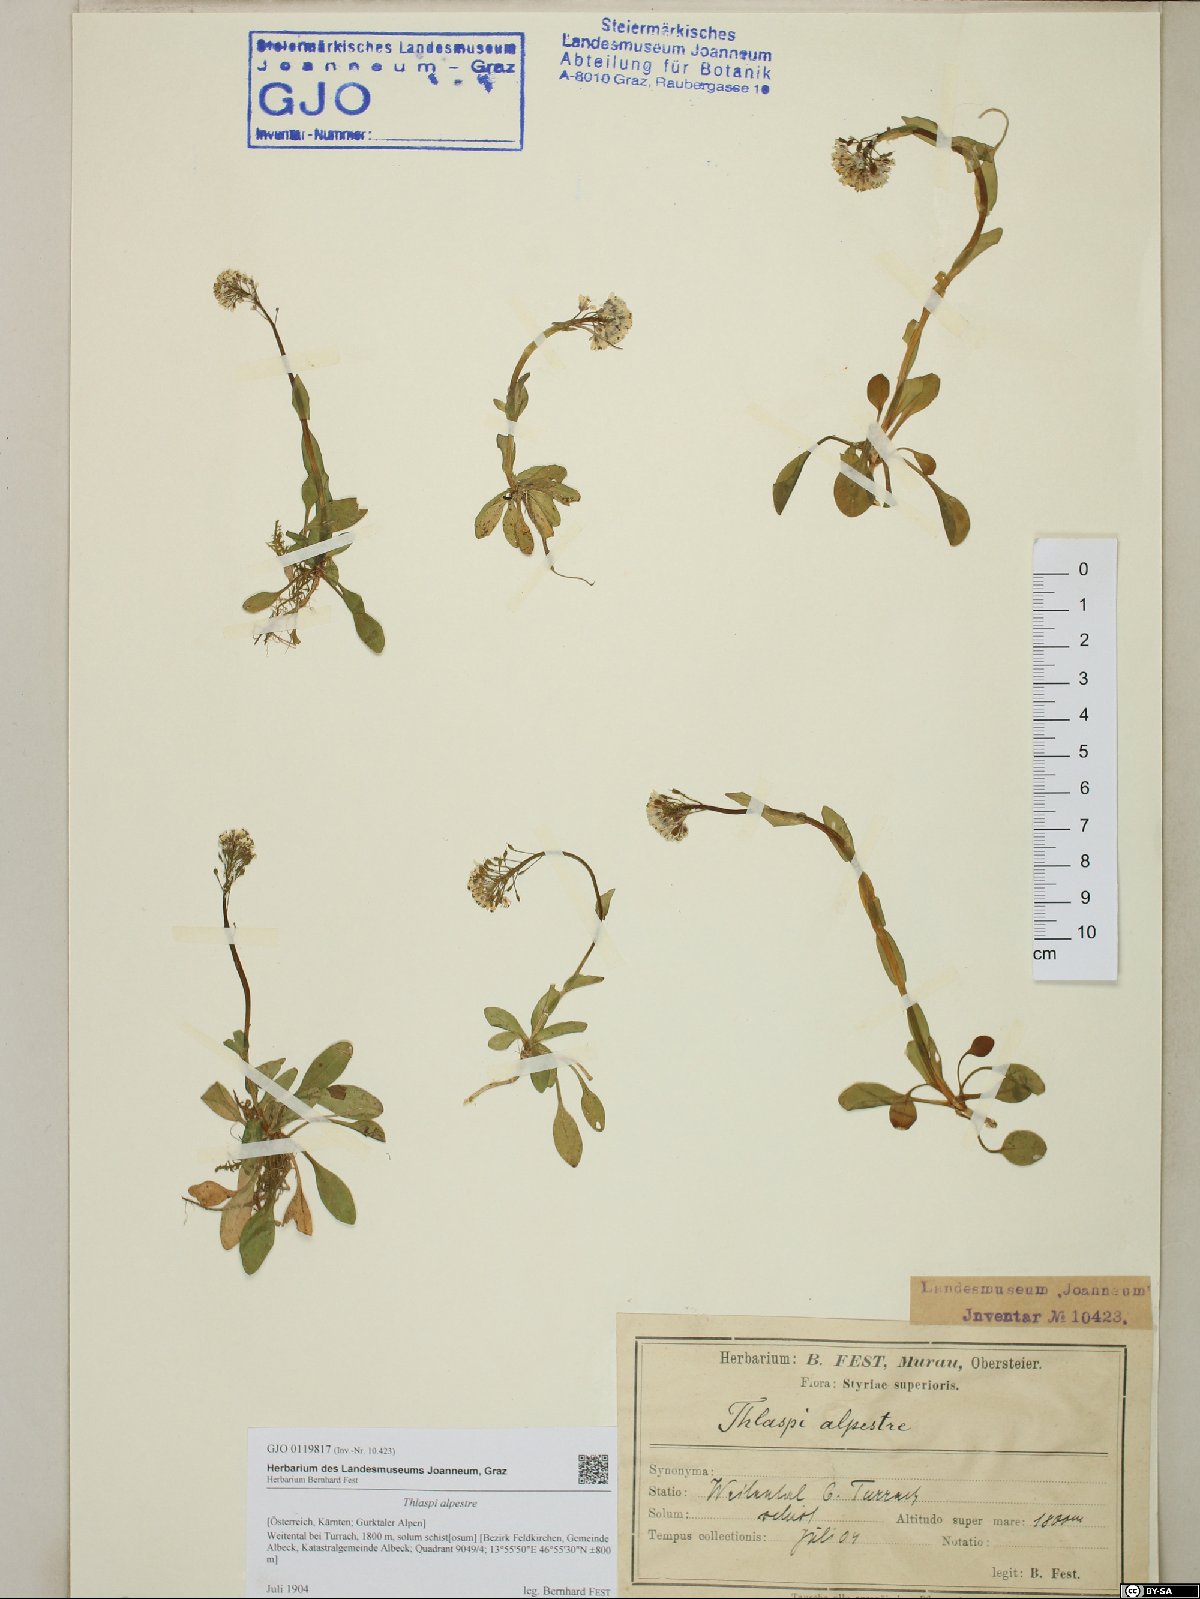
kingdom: Plantae
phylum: Tracheophyta
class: Magnoliopsida
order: Brassicales
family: Brassicaceae
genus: Noccaea
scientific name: Noccaea alpestris
